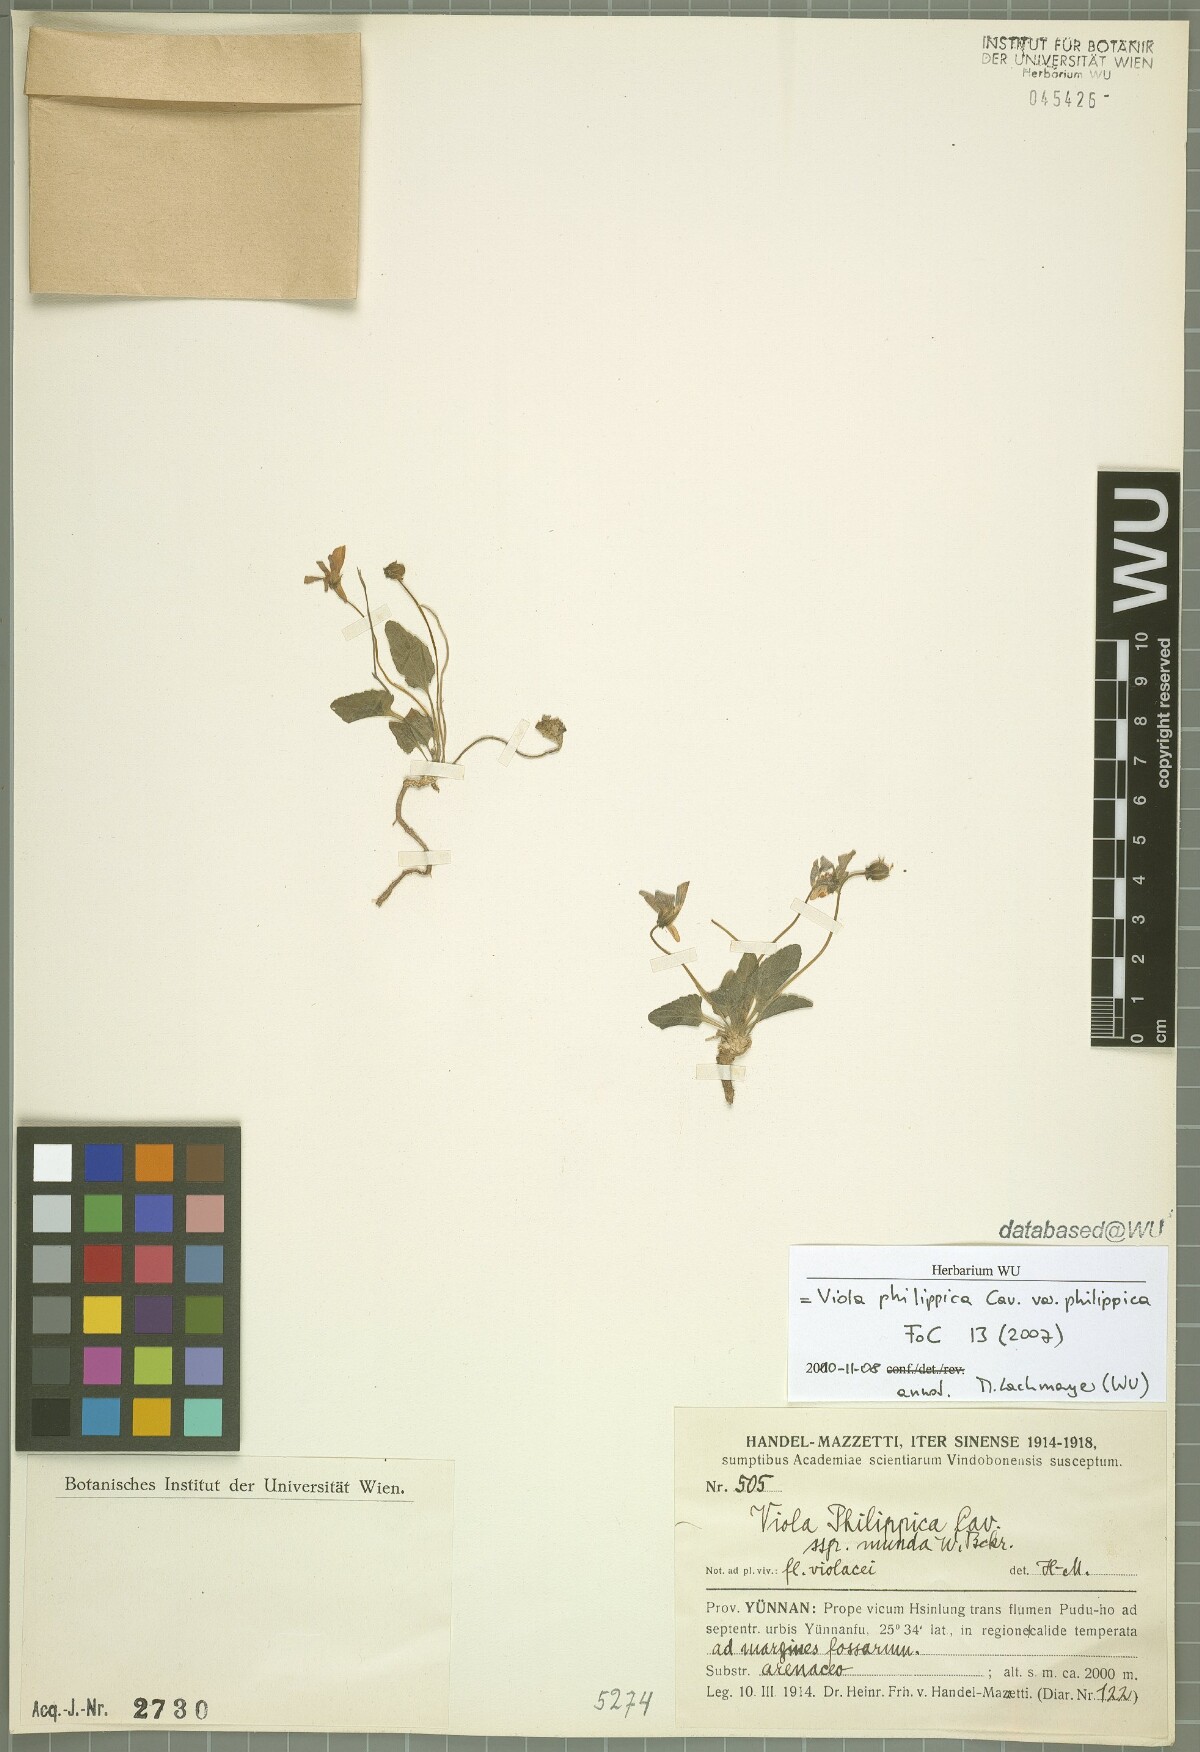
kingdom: Plantae
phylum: Tracheophyta
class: Magnoliopsida
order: Malpighiales
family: Violaceae
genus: Viola
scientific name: Viola philippica
